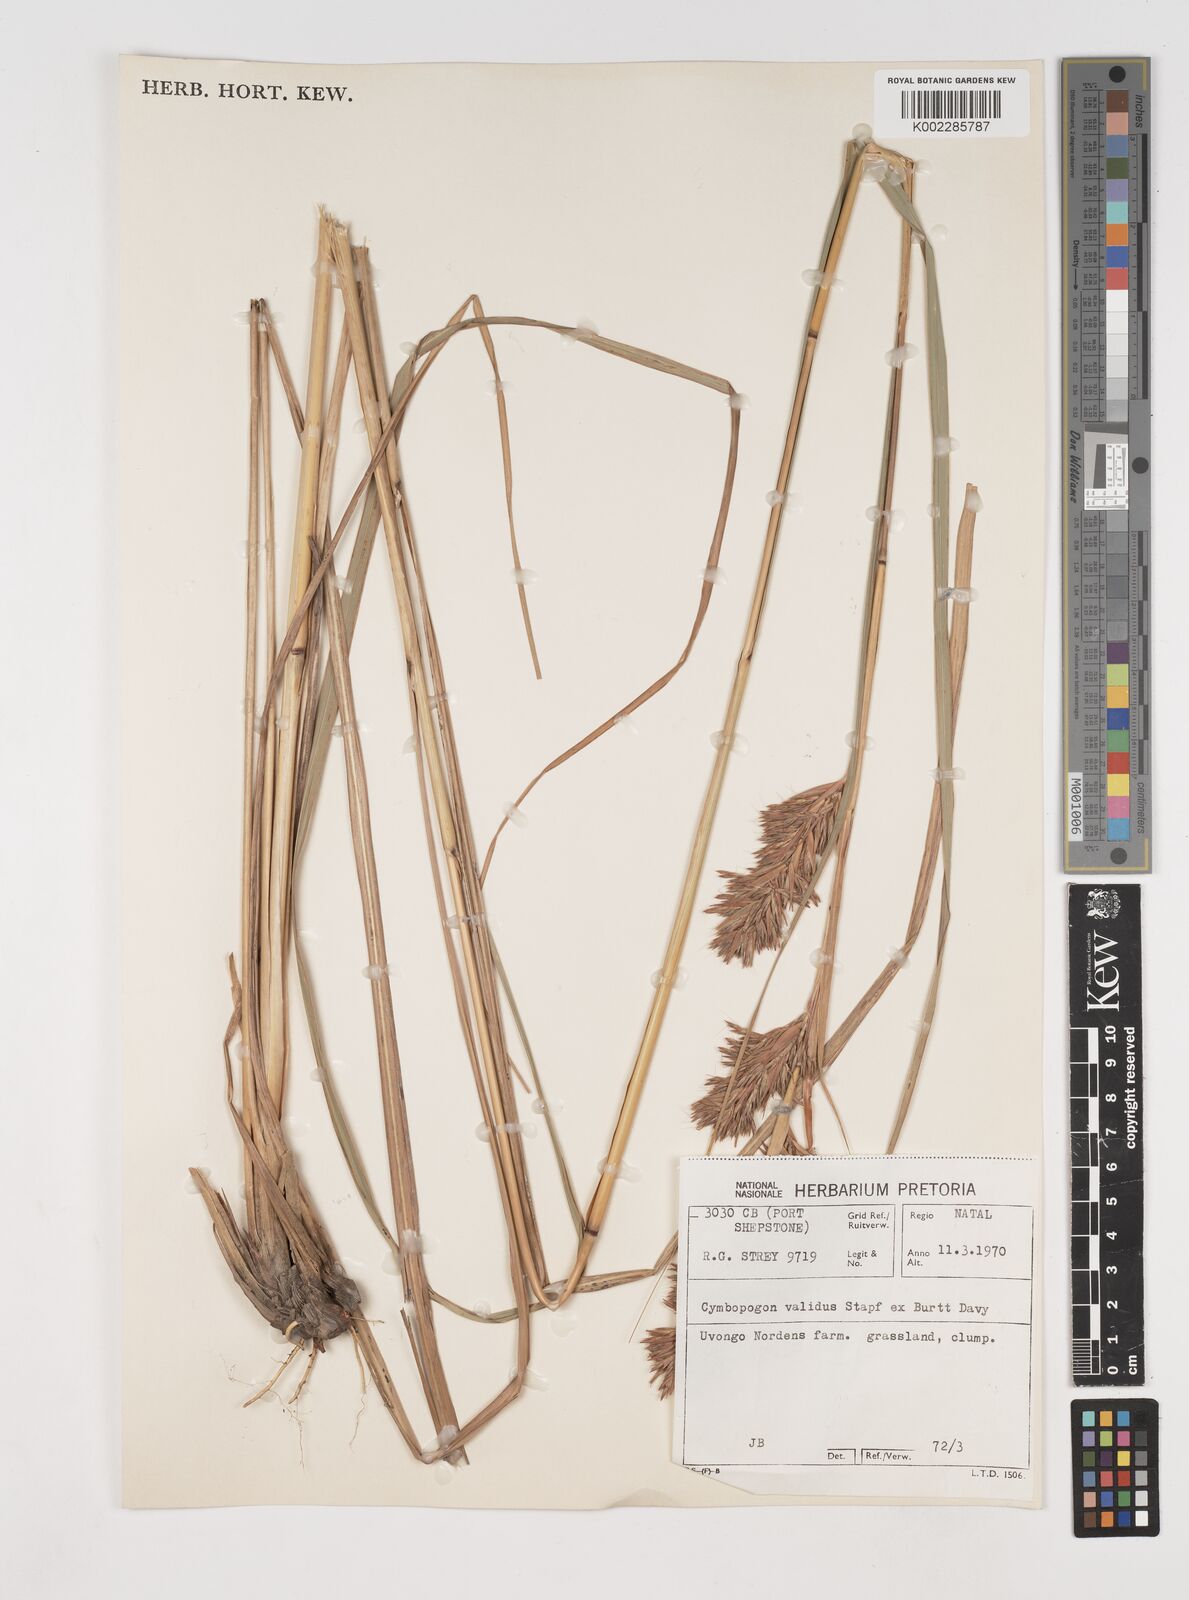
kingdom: Plantae
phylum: Tracheophyta
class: Liliopsida
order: Poales
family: Poaceae
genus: Cymbopogon
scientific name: Cymbopogon nardus
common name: Giant turpentine grass
